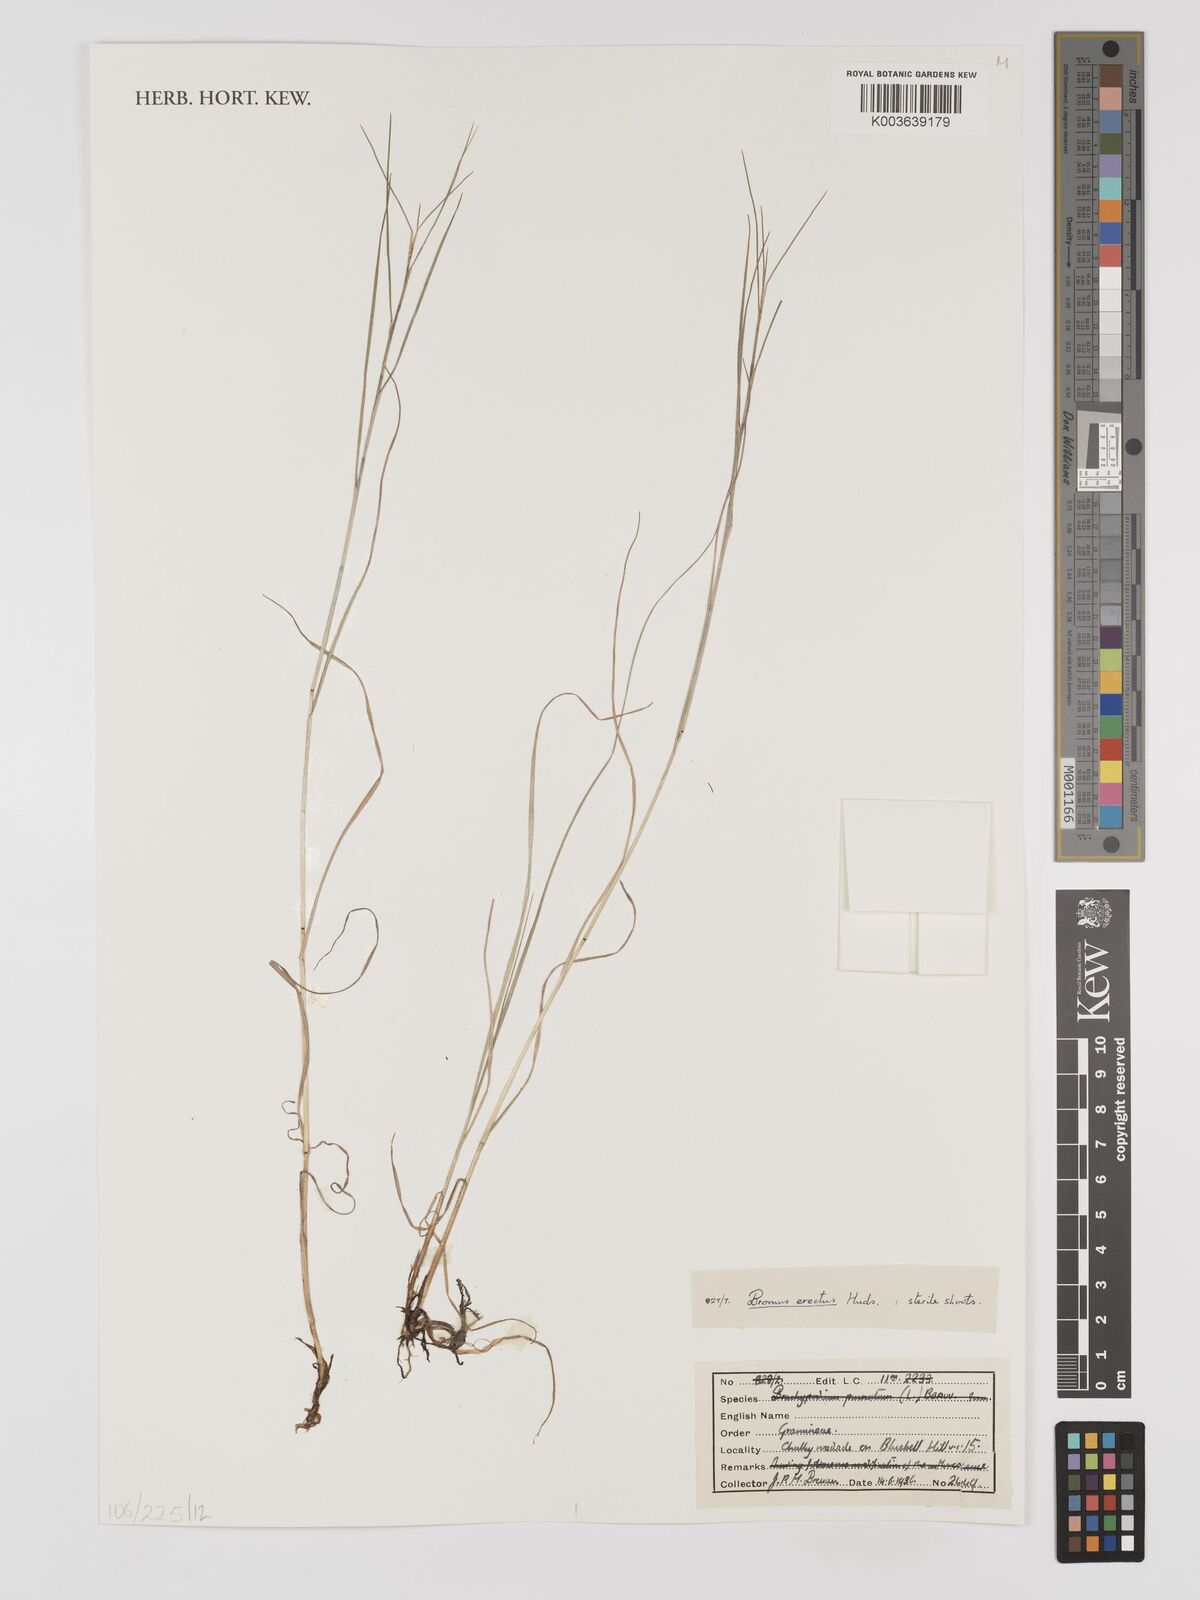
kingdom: Plantae
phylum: Tracheophyta
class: Liliopsida
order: Poales
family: Poaceae
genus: Bromus
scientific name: Bromus erectus
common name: Erect brome
